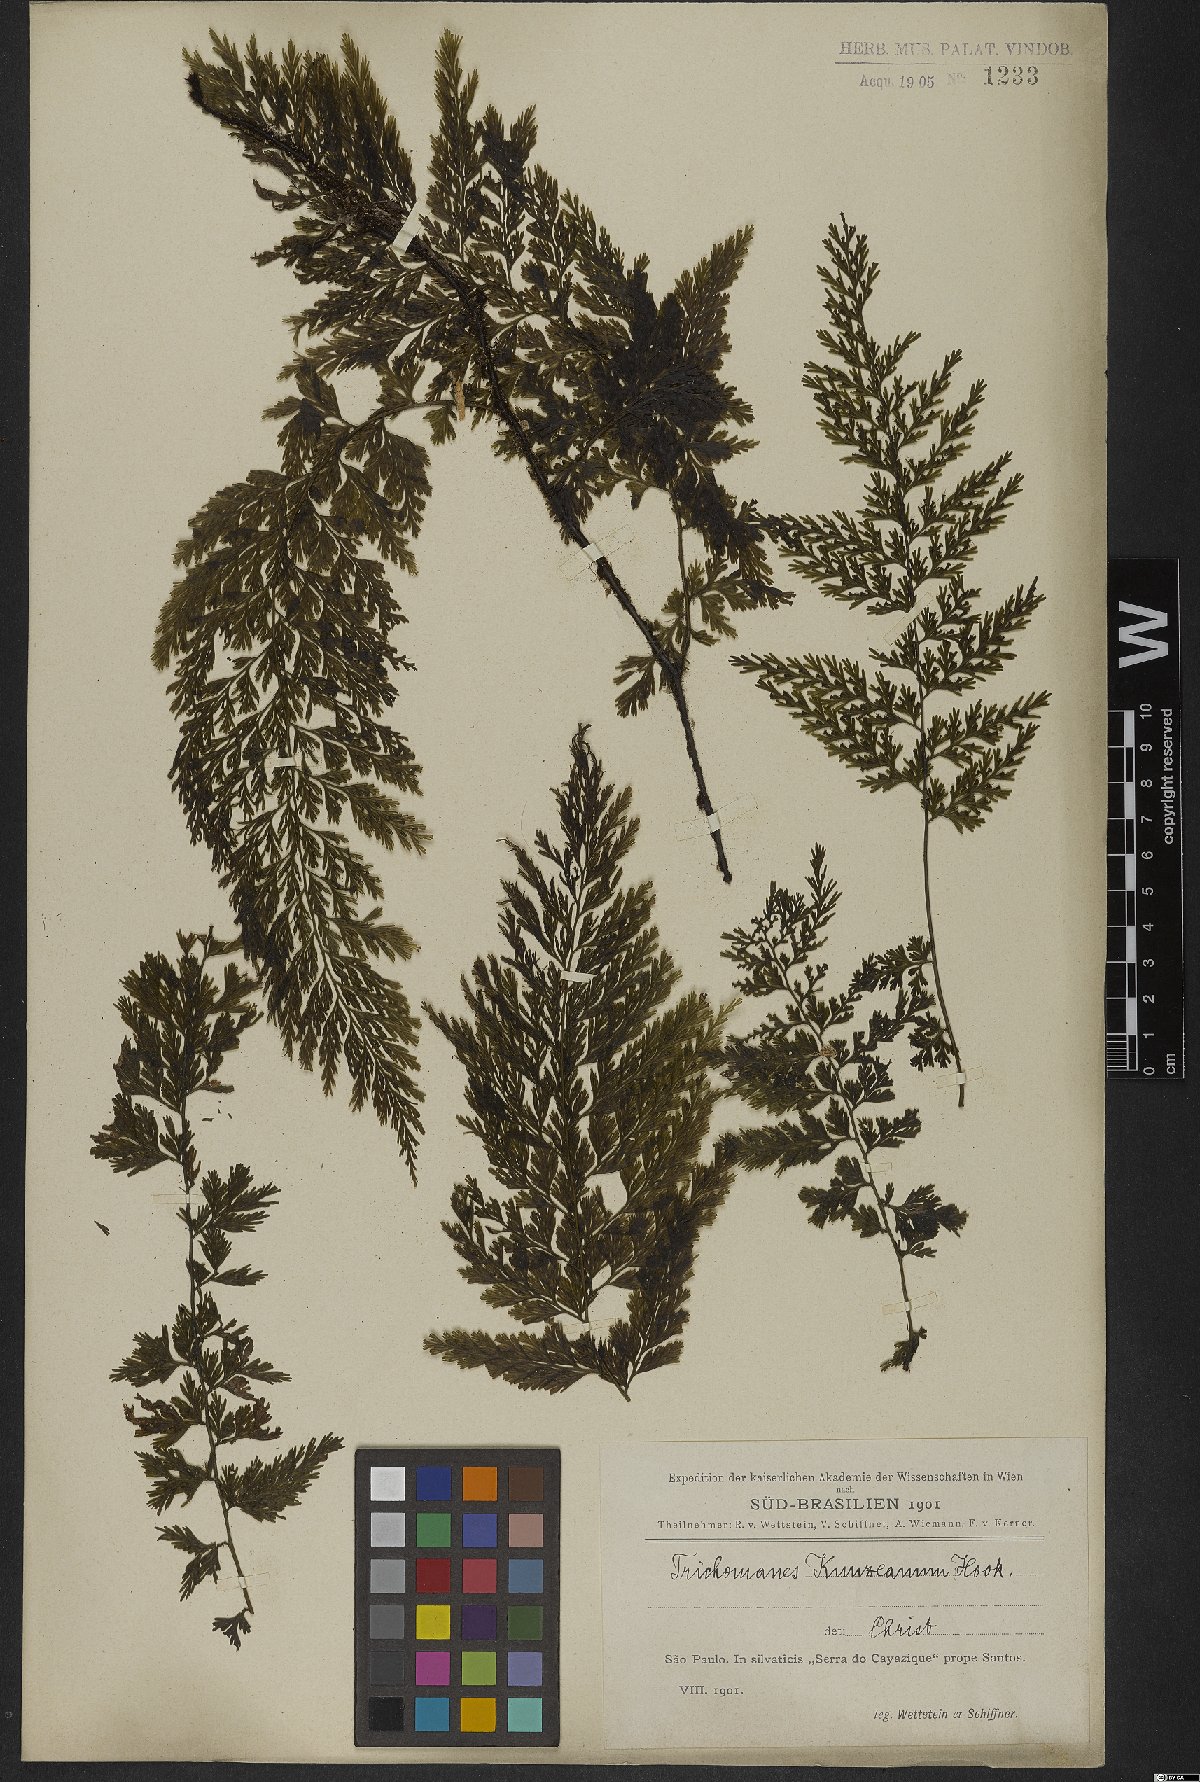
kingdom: Plantae
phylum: Tracheophyta
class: Polypodiopsida
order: Hymenophyllales
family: Hymenophyllaceae
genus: Vandenboschia
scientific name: Vandenboschia radicans
